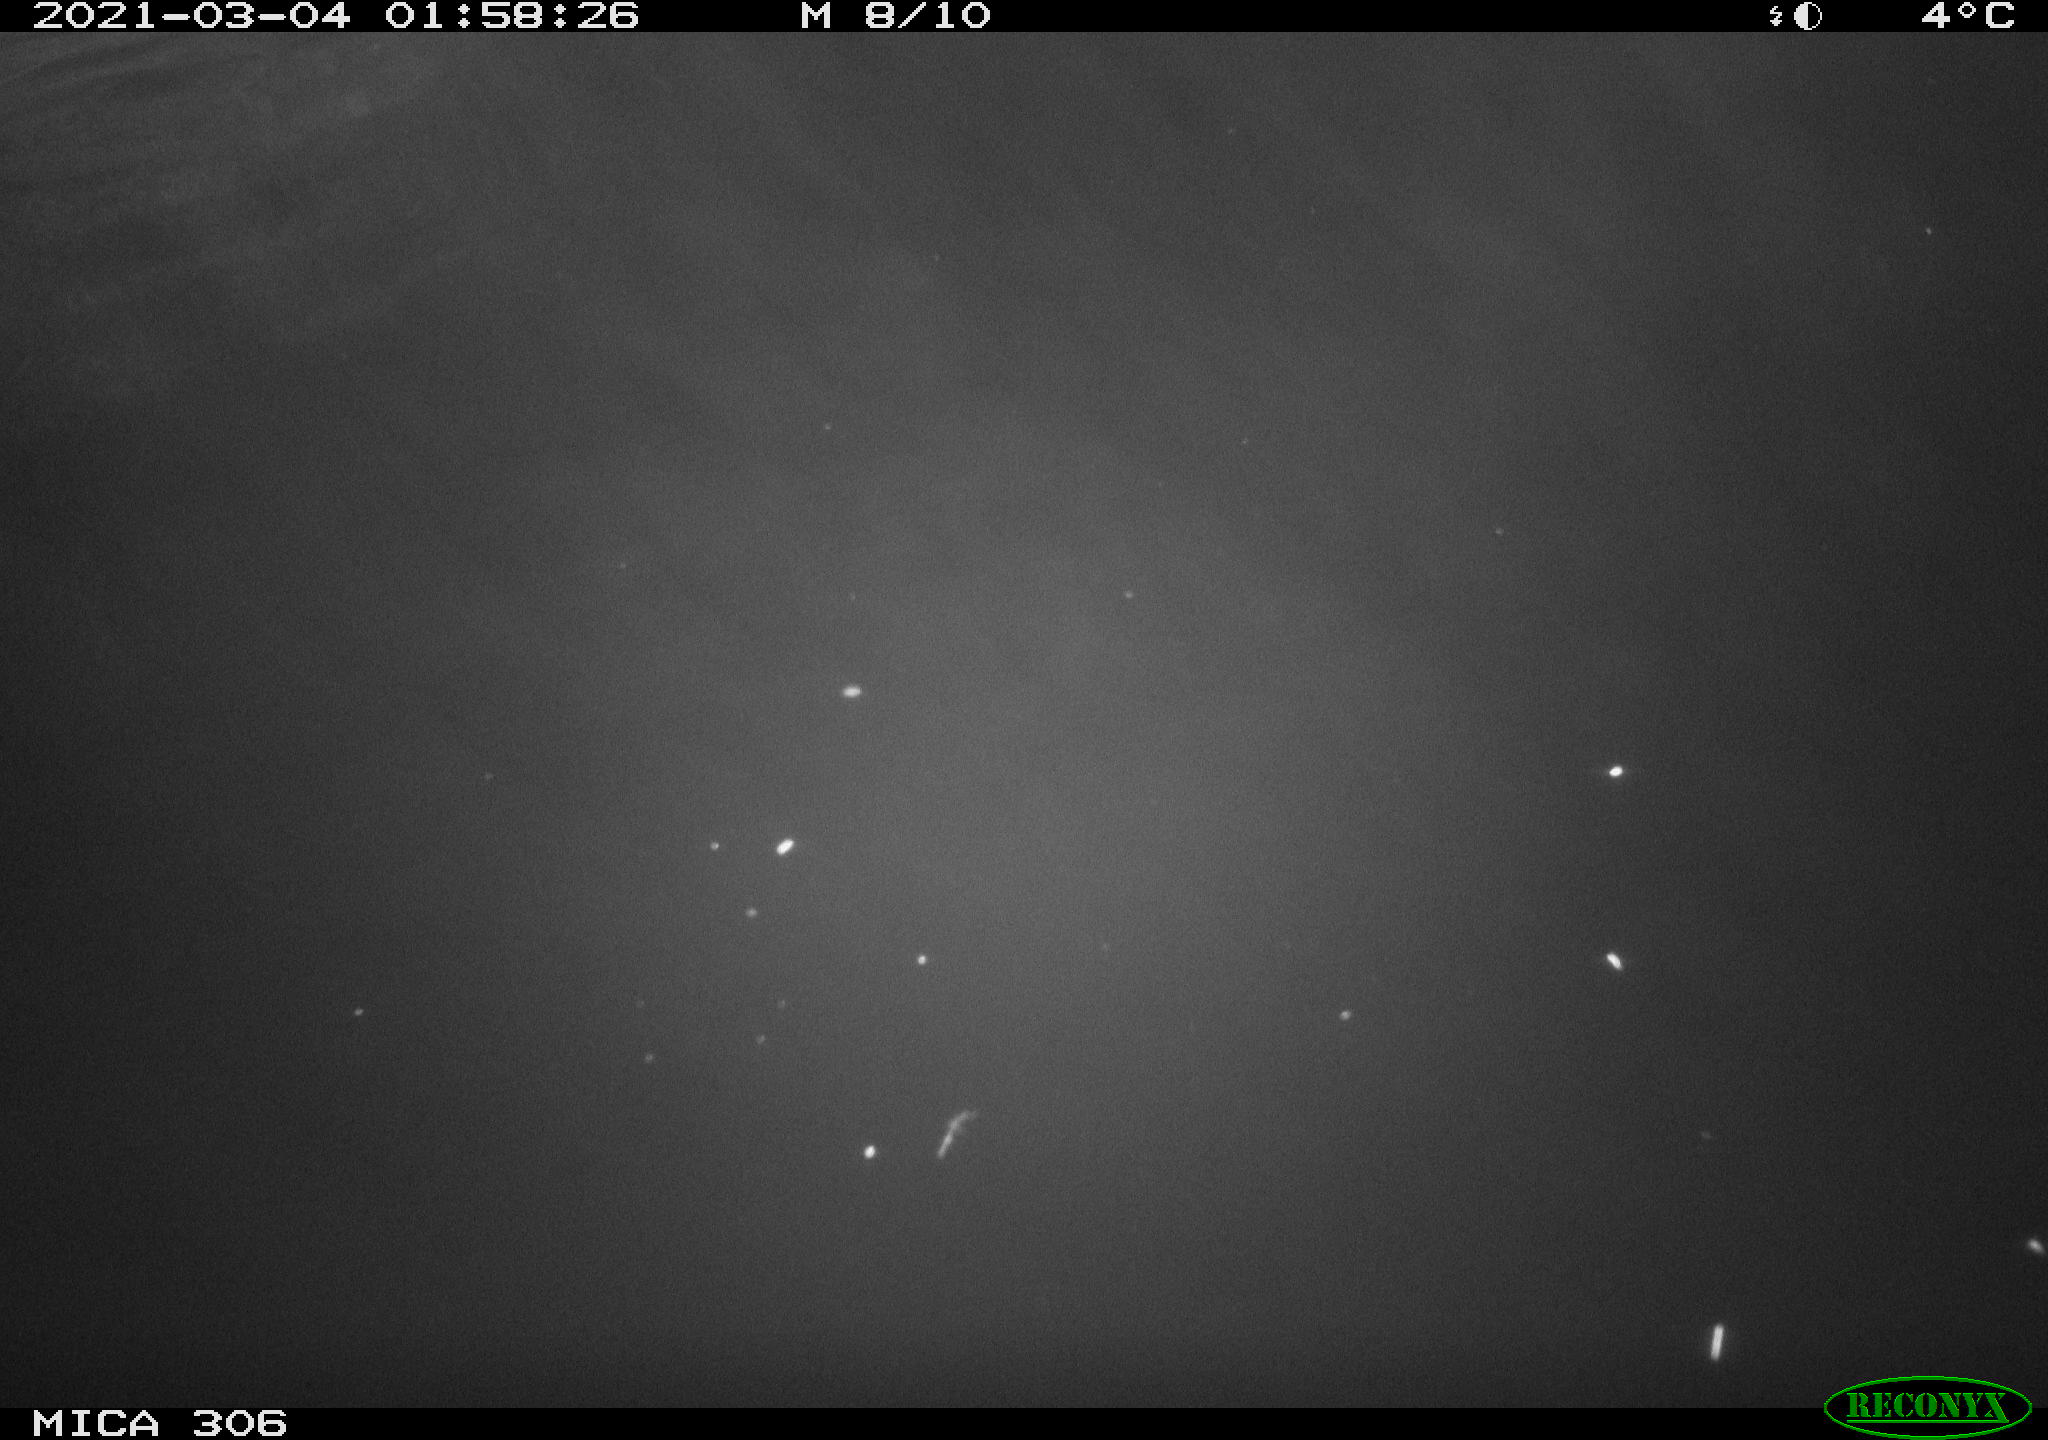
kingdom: Animalia
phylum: Chordata
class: Mammalia
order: Rodentia
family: Cricetidae
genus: Ondatra
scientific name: Ondatra zibethicus
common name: Muskrat
